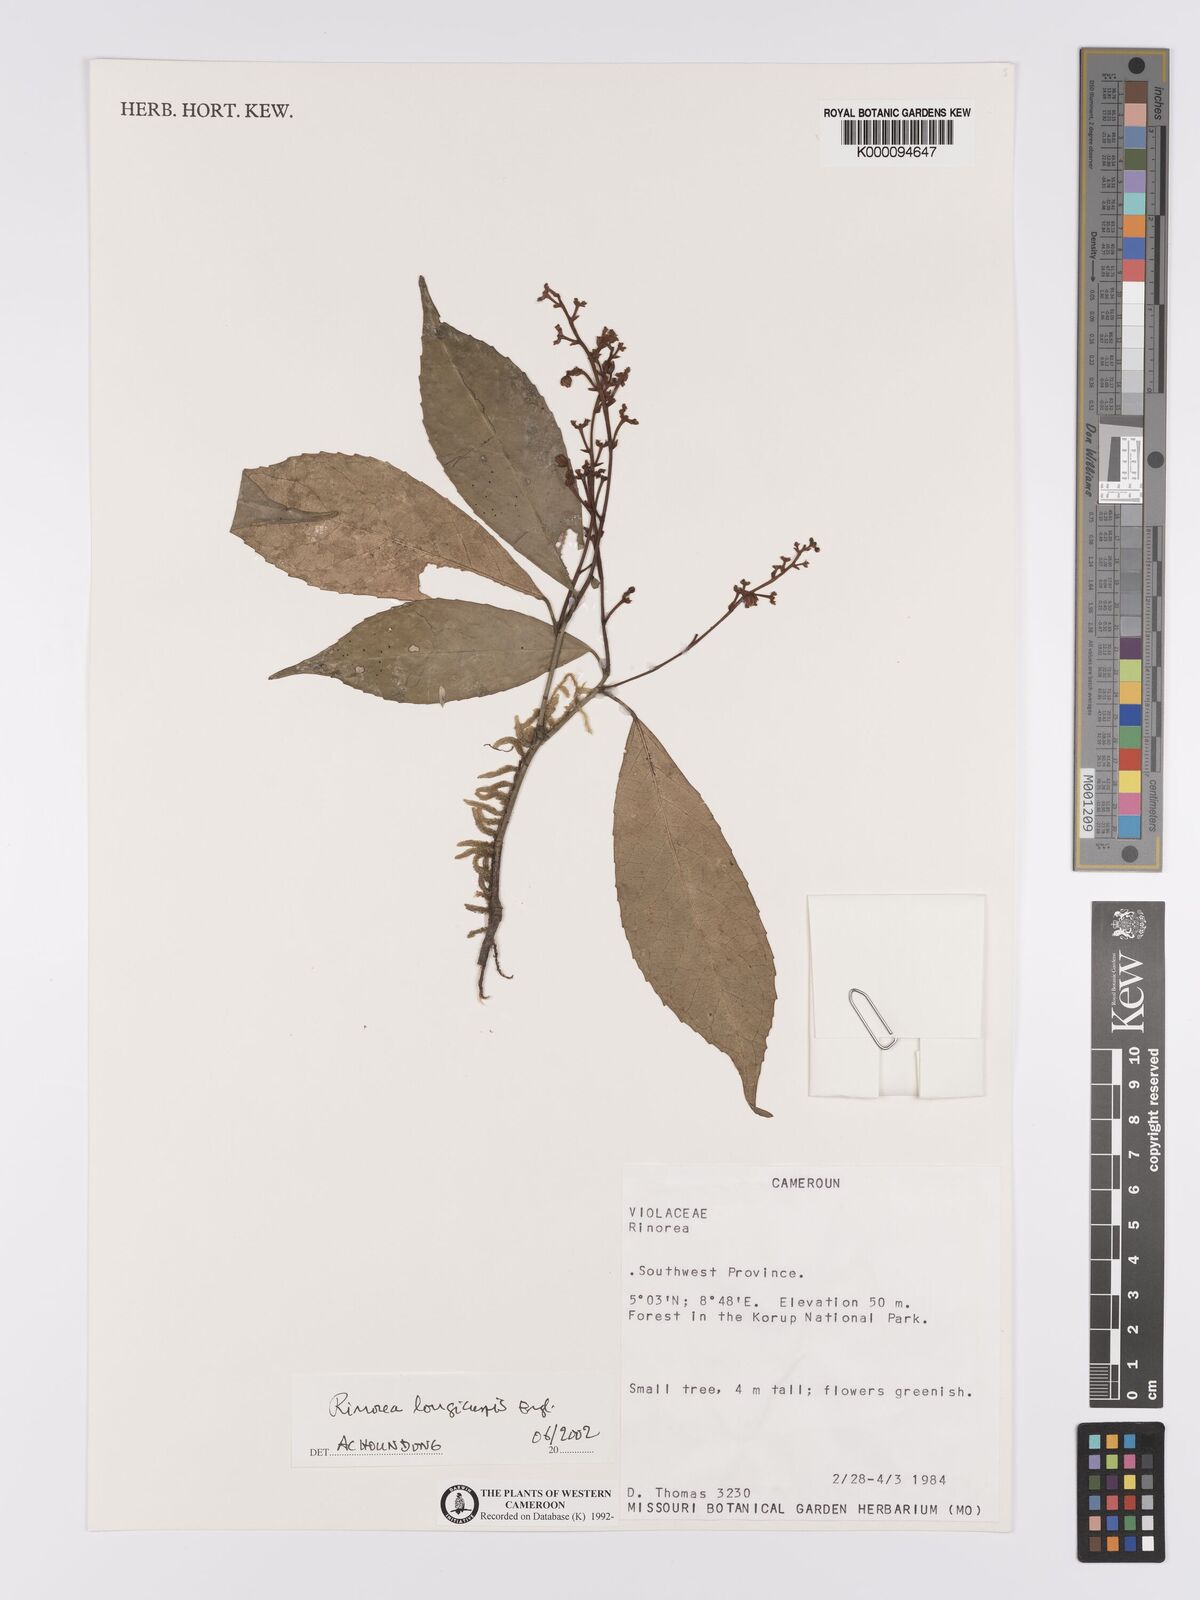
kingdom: Plantae
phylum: Tracheophyta
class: Magnoliopsida
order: Malpighiales
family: Violaceae
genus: Rinorea
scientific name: Rinorea
